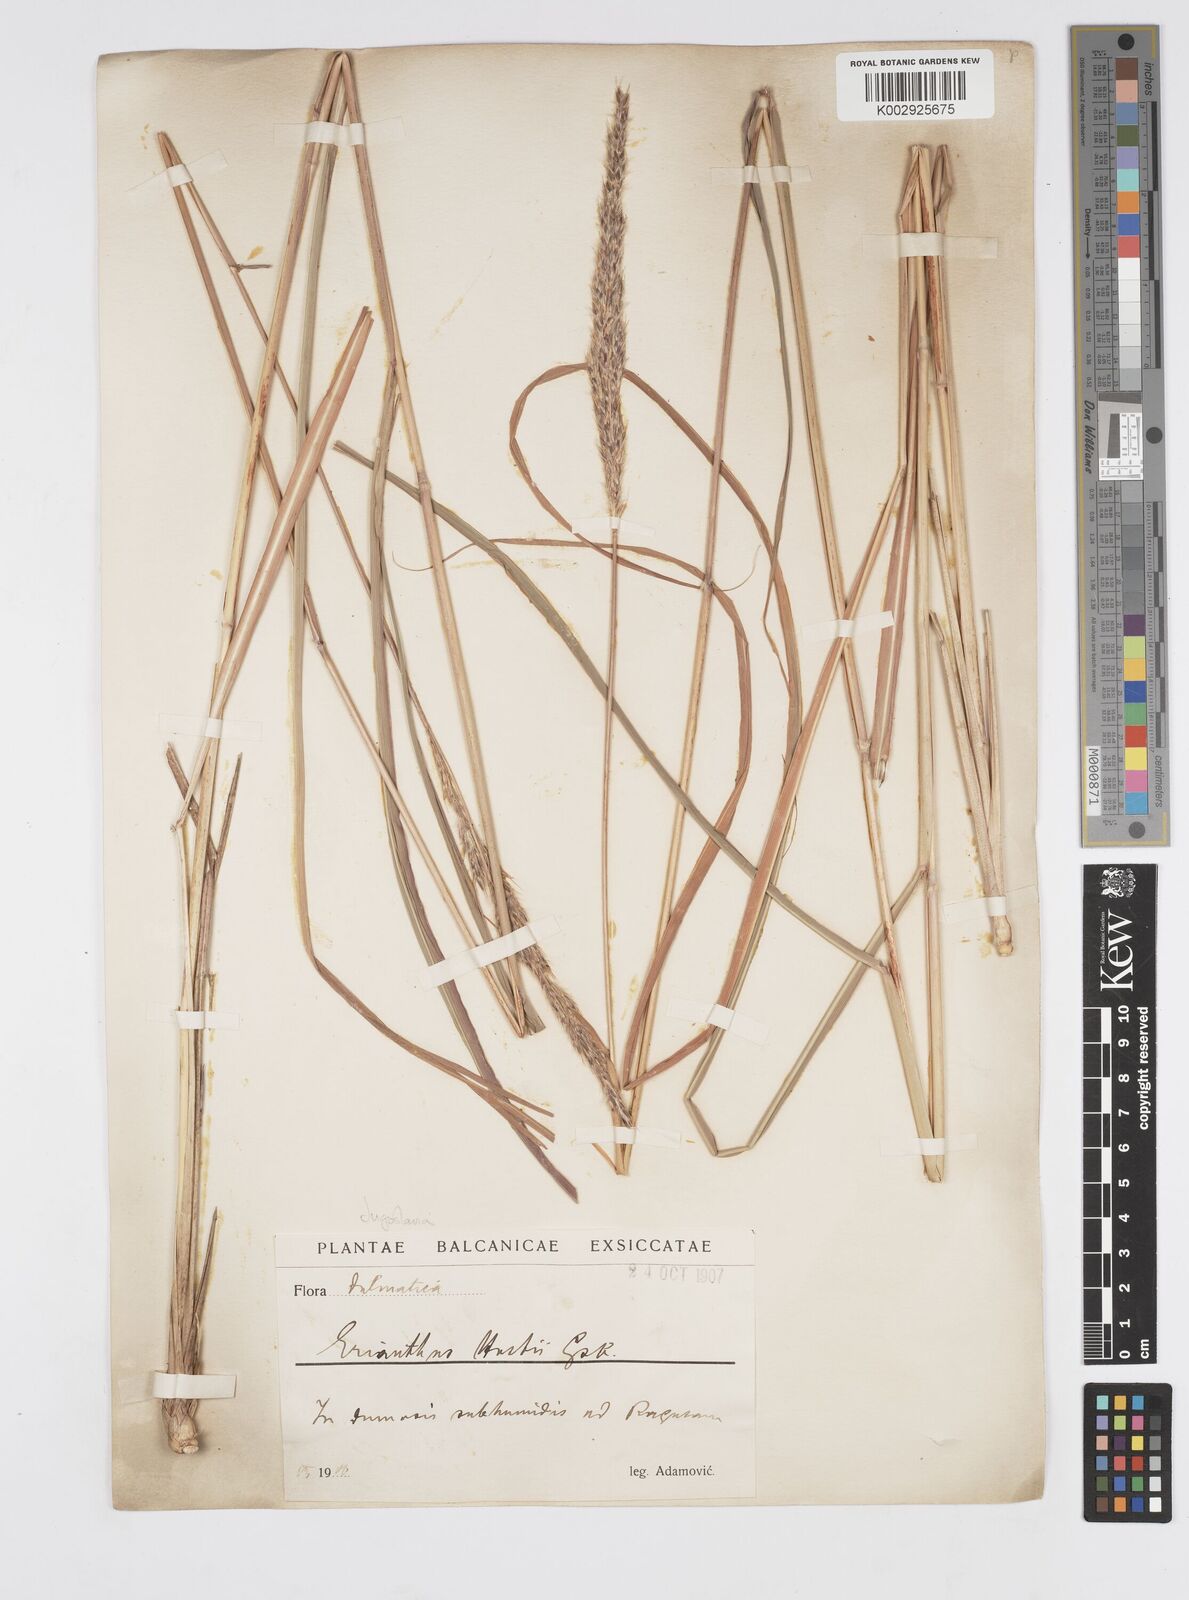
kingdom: Plantae
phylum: Tracheophyta
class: Liliopsida
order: Poales
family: Poaceae
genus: Tripidium
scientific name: Tripidium strictum
